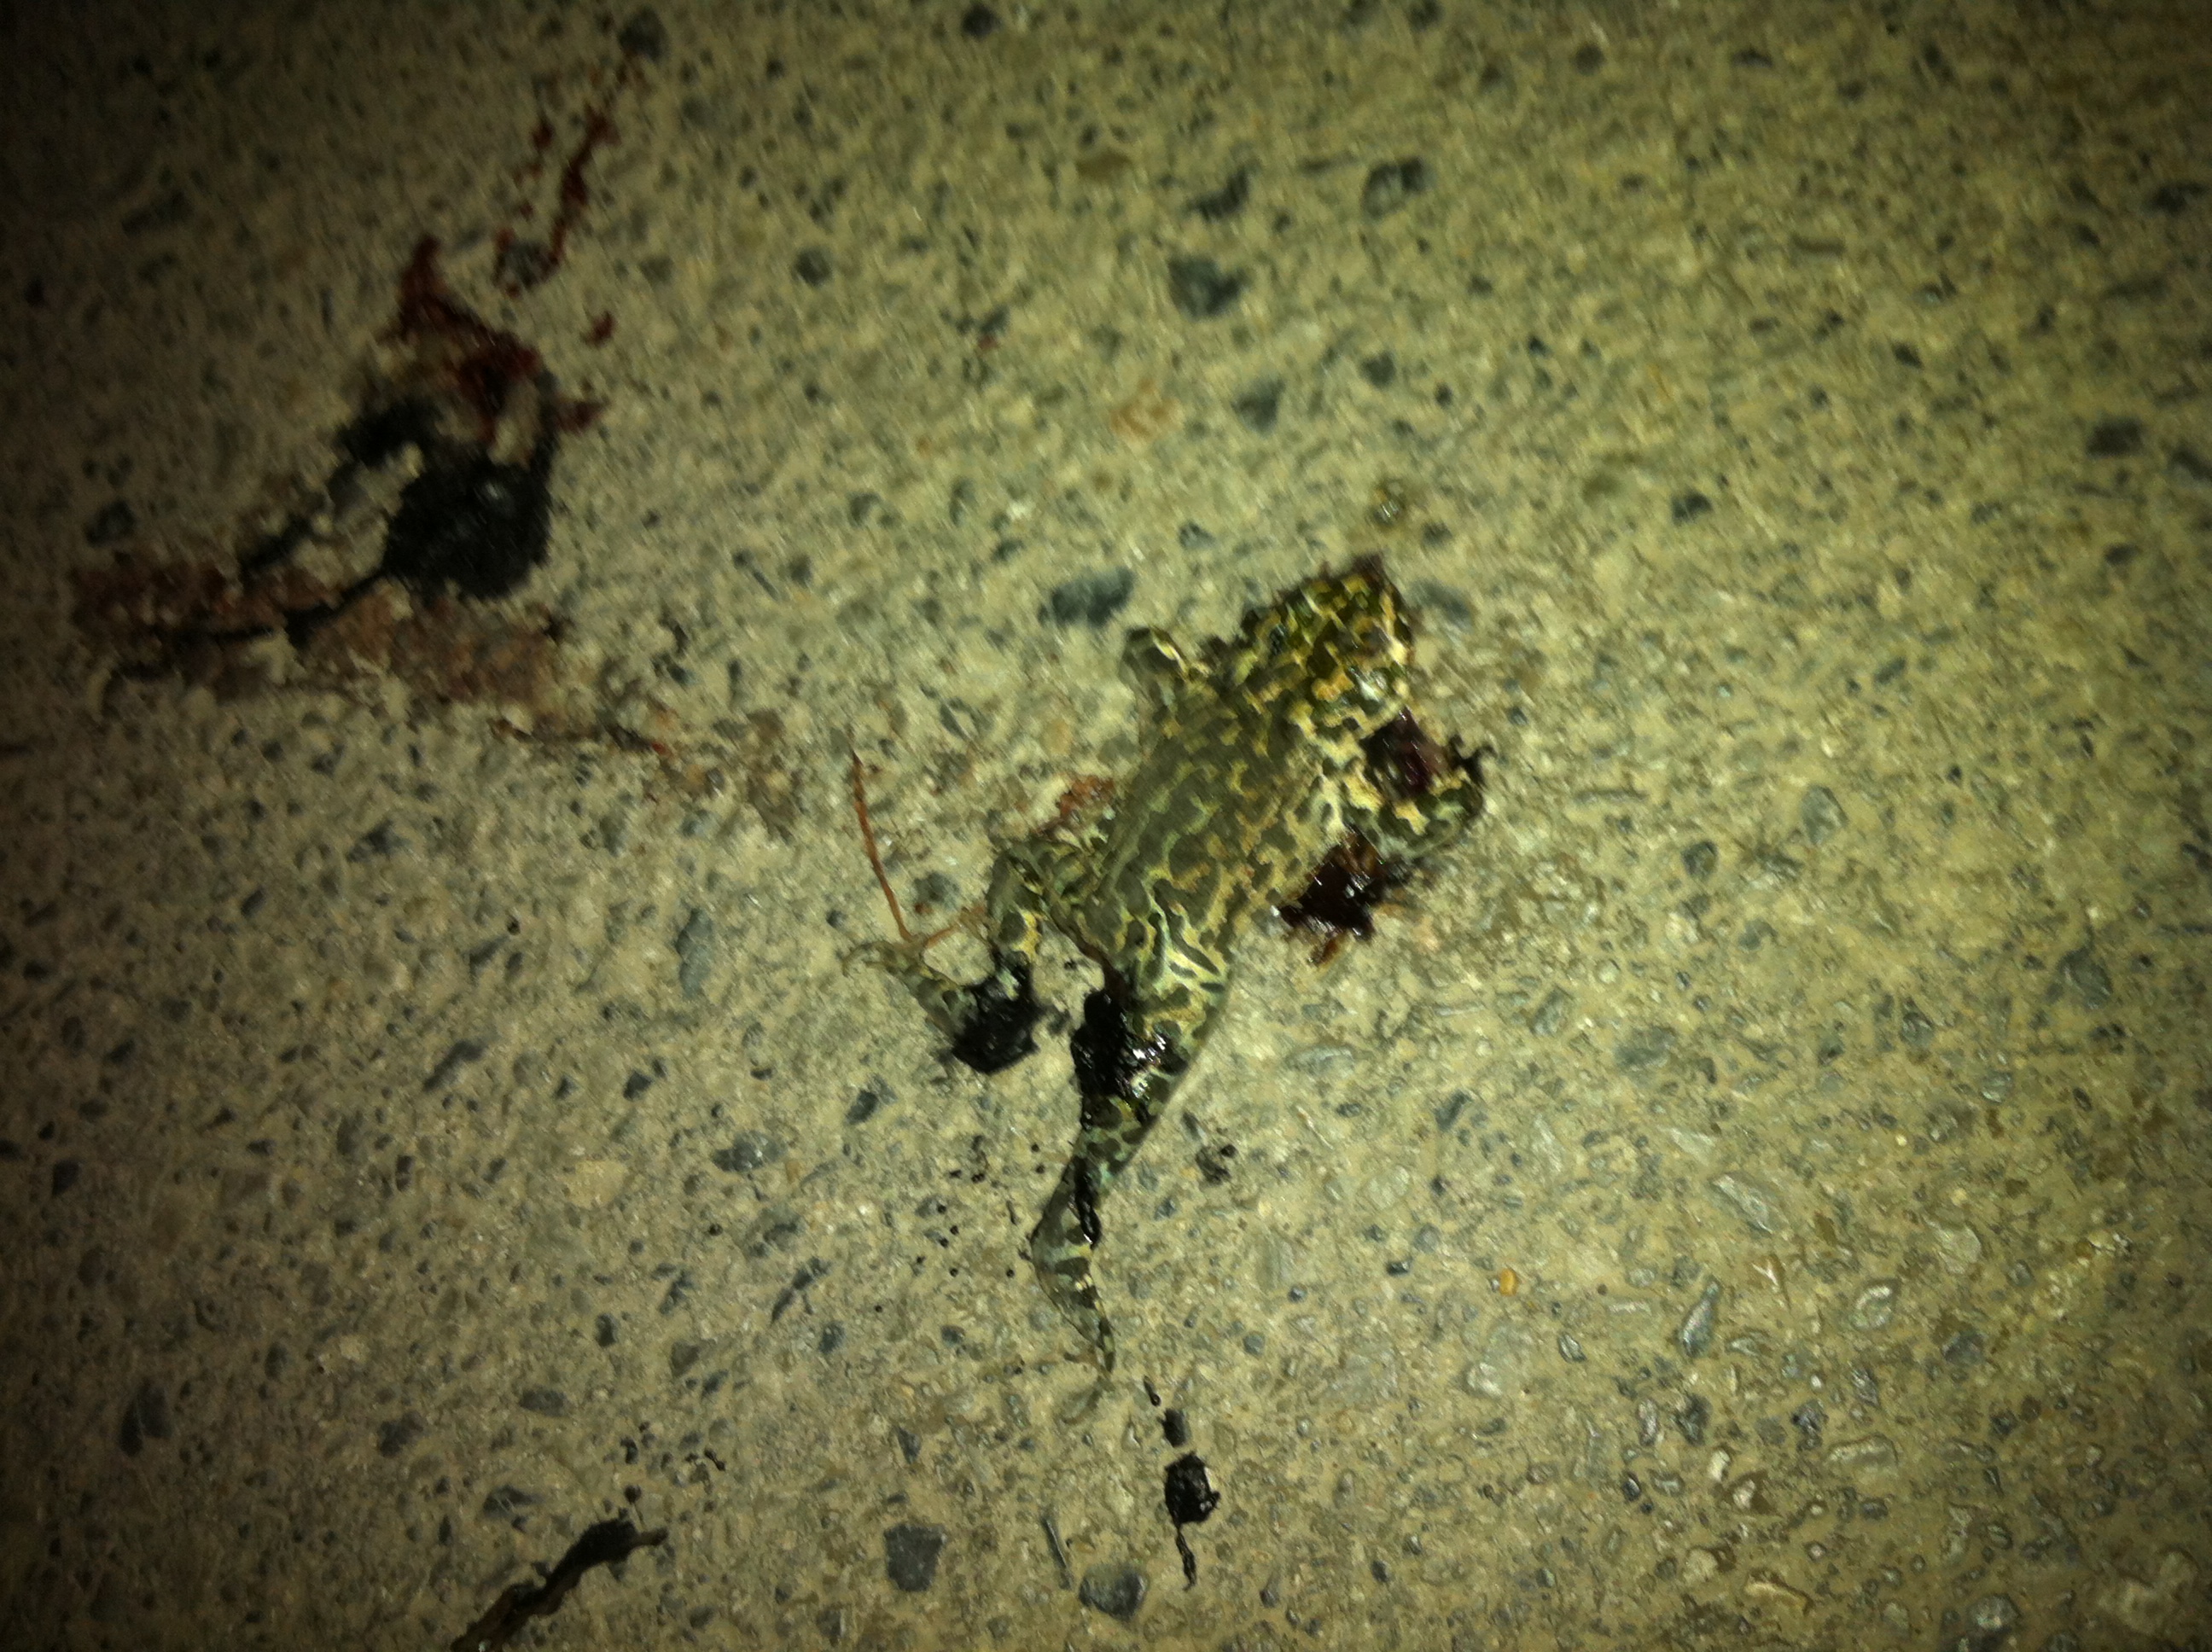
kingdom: Animalia
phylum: Chordata
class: Amphibia
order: Anura
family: Bufonidae
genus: Bufotes
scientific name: Bufotes viridis
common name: European green toad
